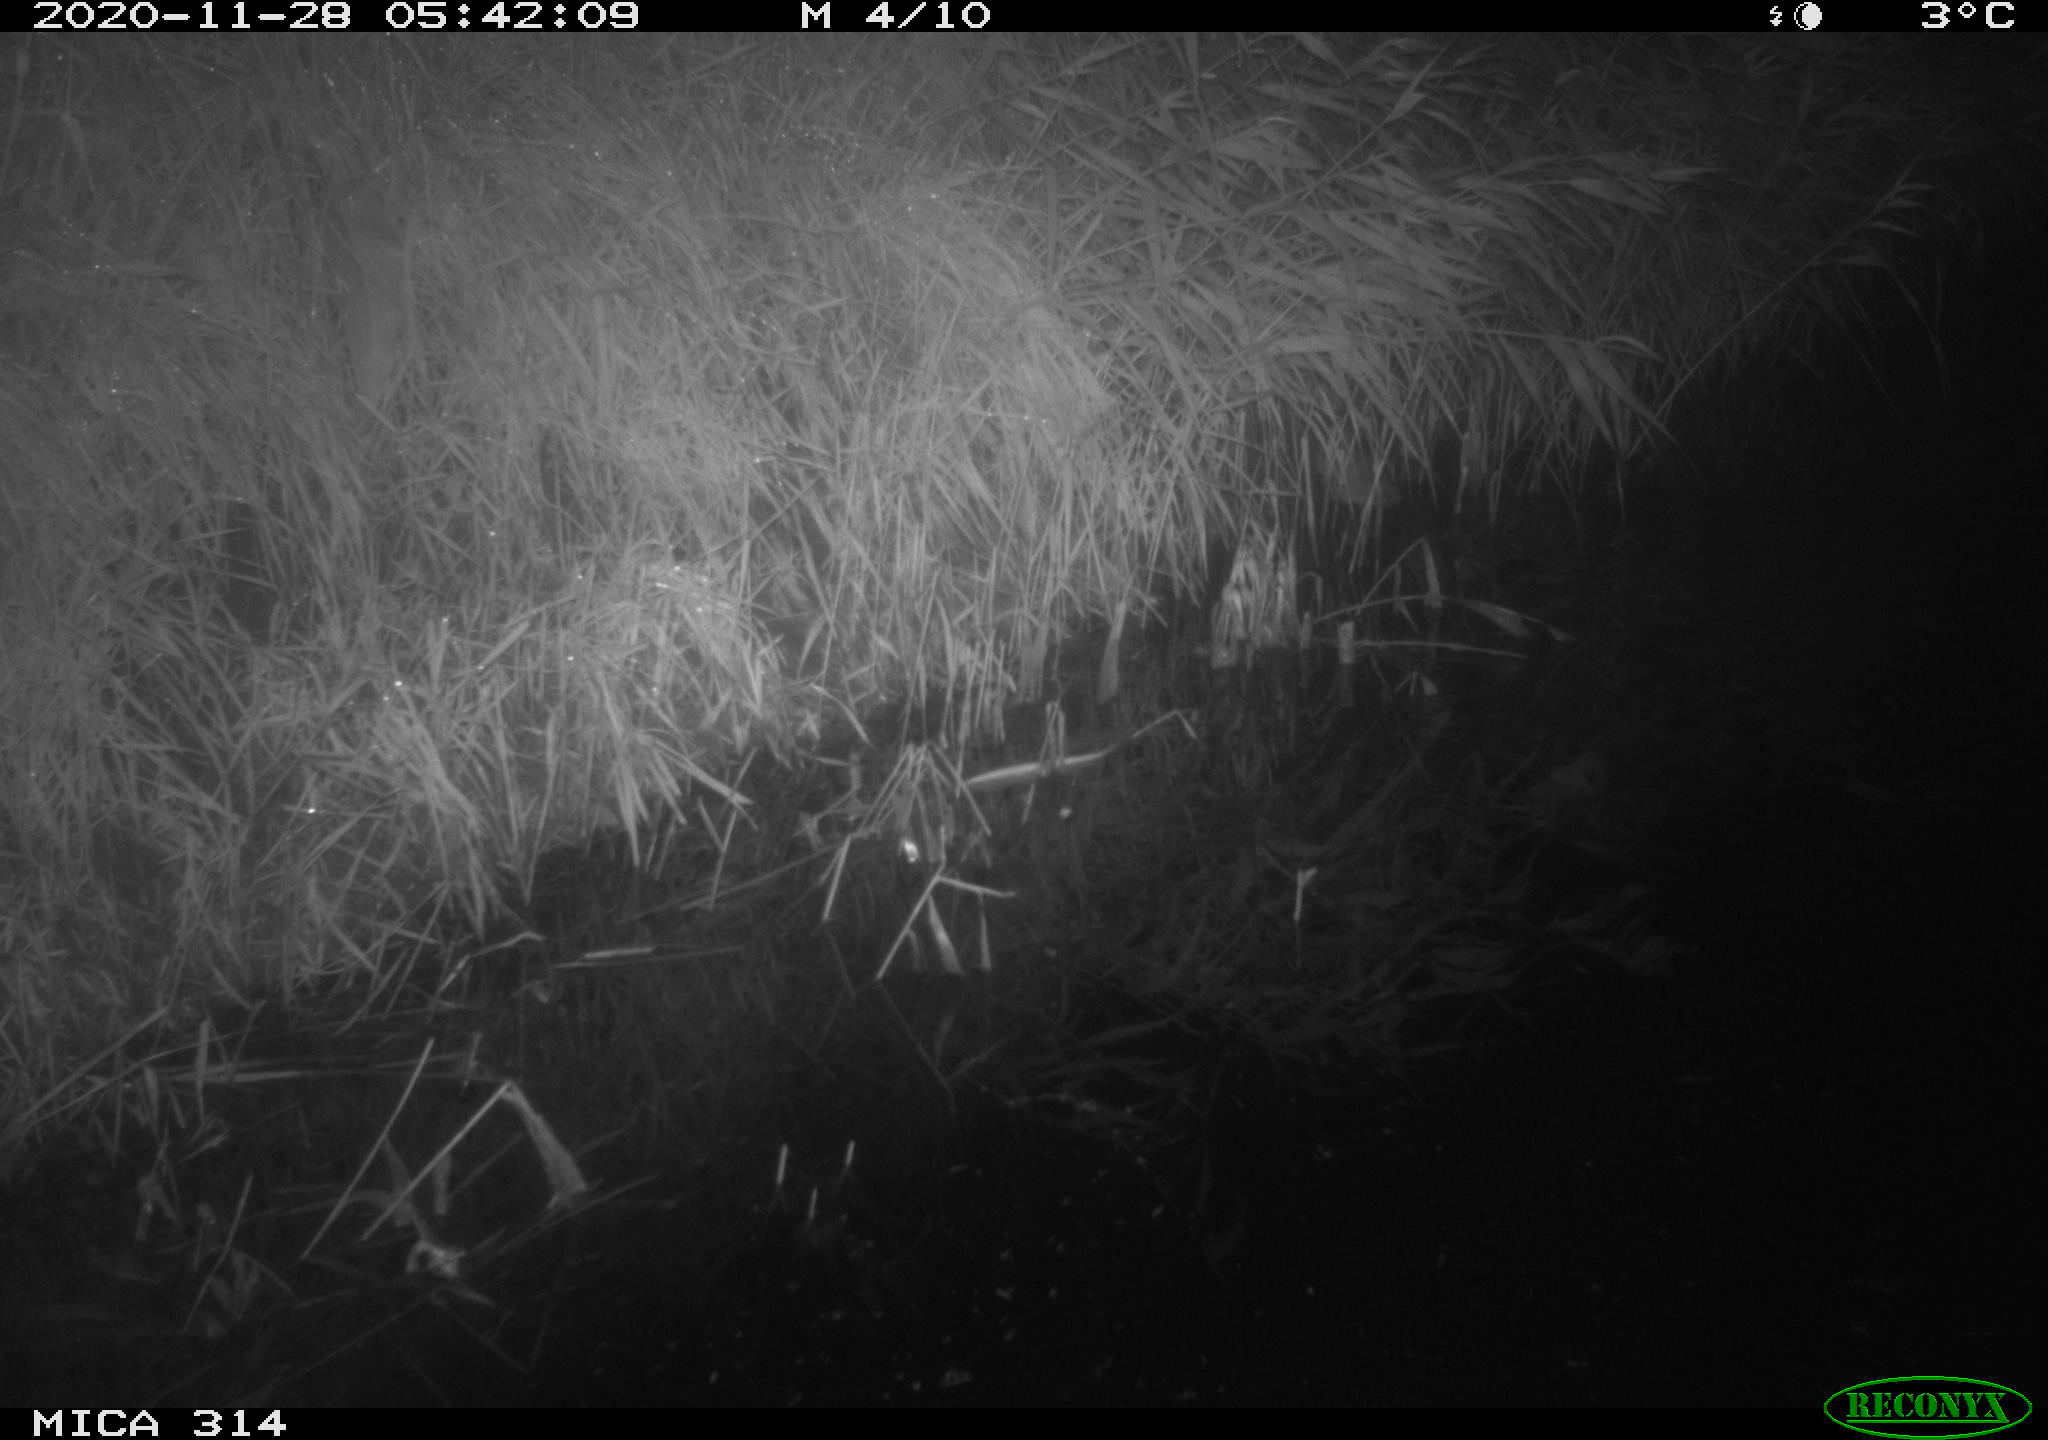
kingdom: Animalia
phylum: Chordata
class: Mammalia
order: Rodentia
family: Muridae
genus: Rattus
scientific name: Rattus norvegicus
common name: Brown rat
